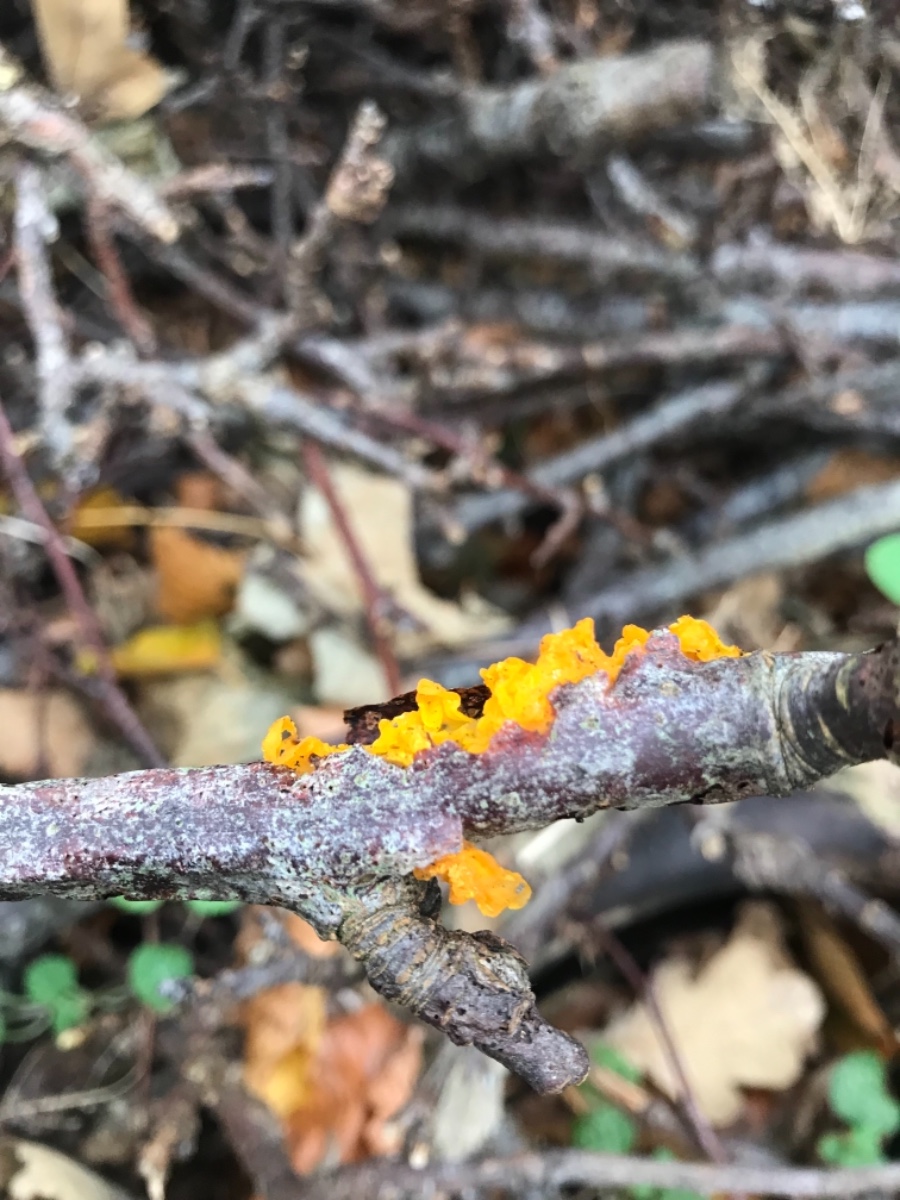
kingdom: Fungi
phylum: Basidiomycota
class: Tremellomycetes
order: Tremellales
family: Tremellaceae
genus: Tremella
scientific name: Tremella mesenterica
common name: gul bævresvamp
